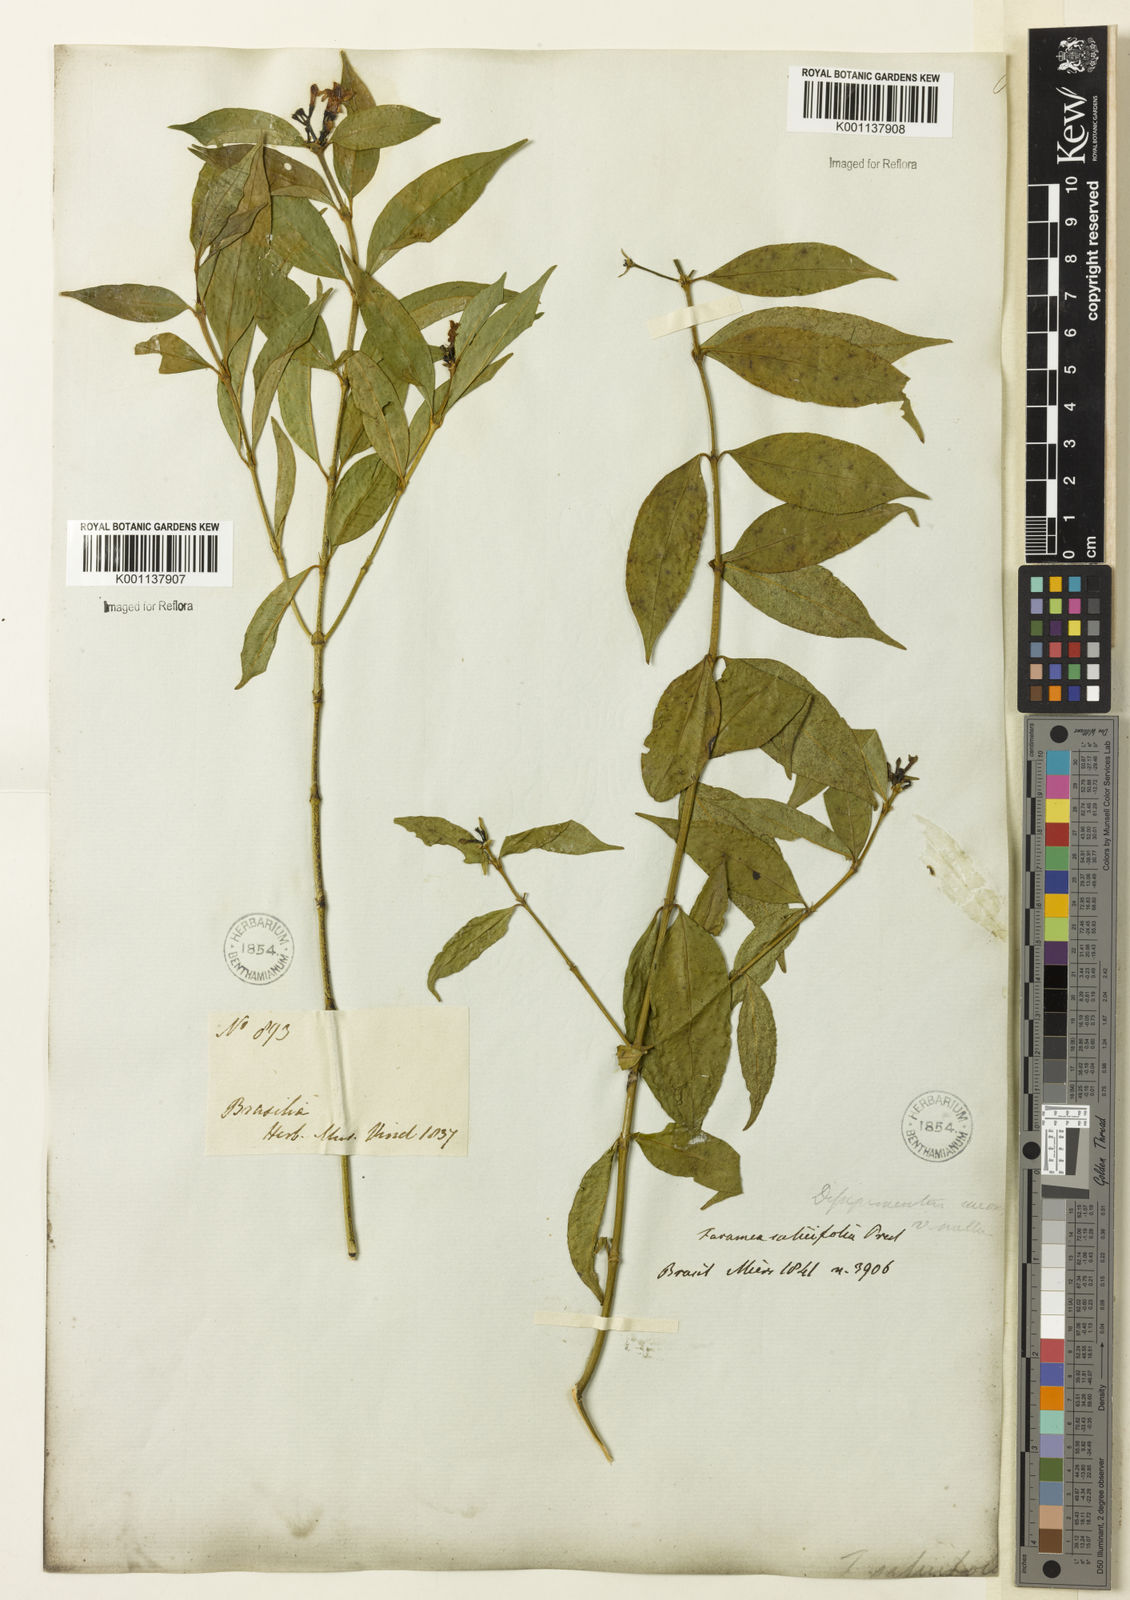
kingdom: Plantae
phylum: Tracheophyta
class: Magnoliopsida
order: Gentianales
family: Rubiaceae
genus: Faramea
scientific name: Faramea multiflora
